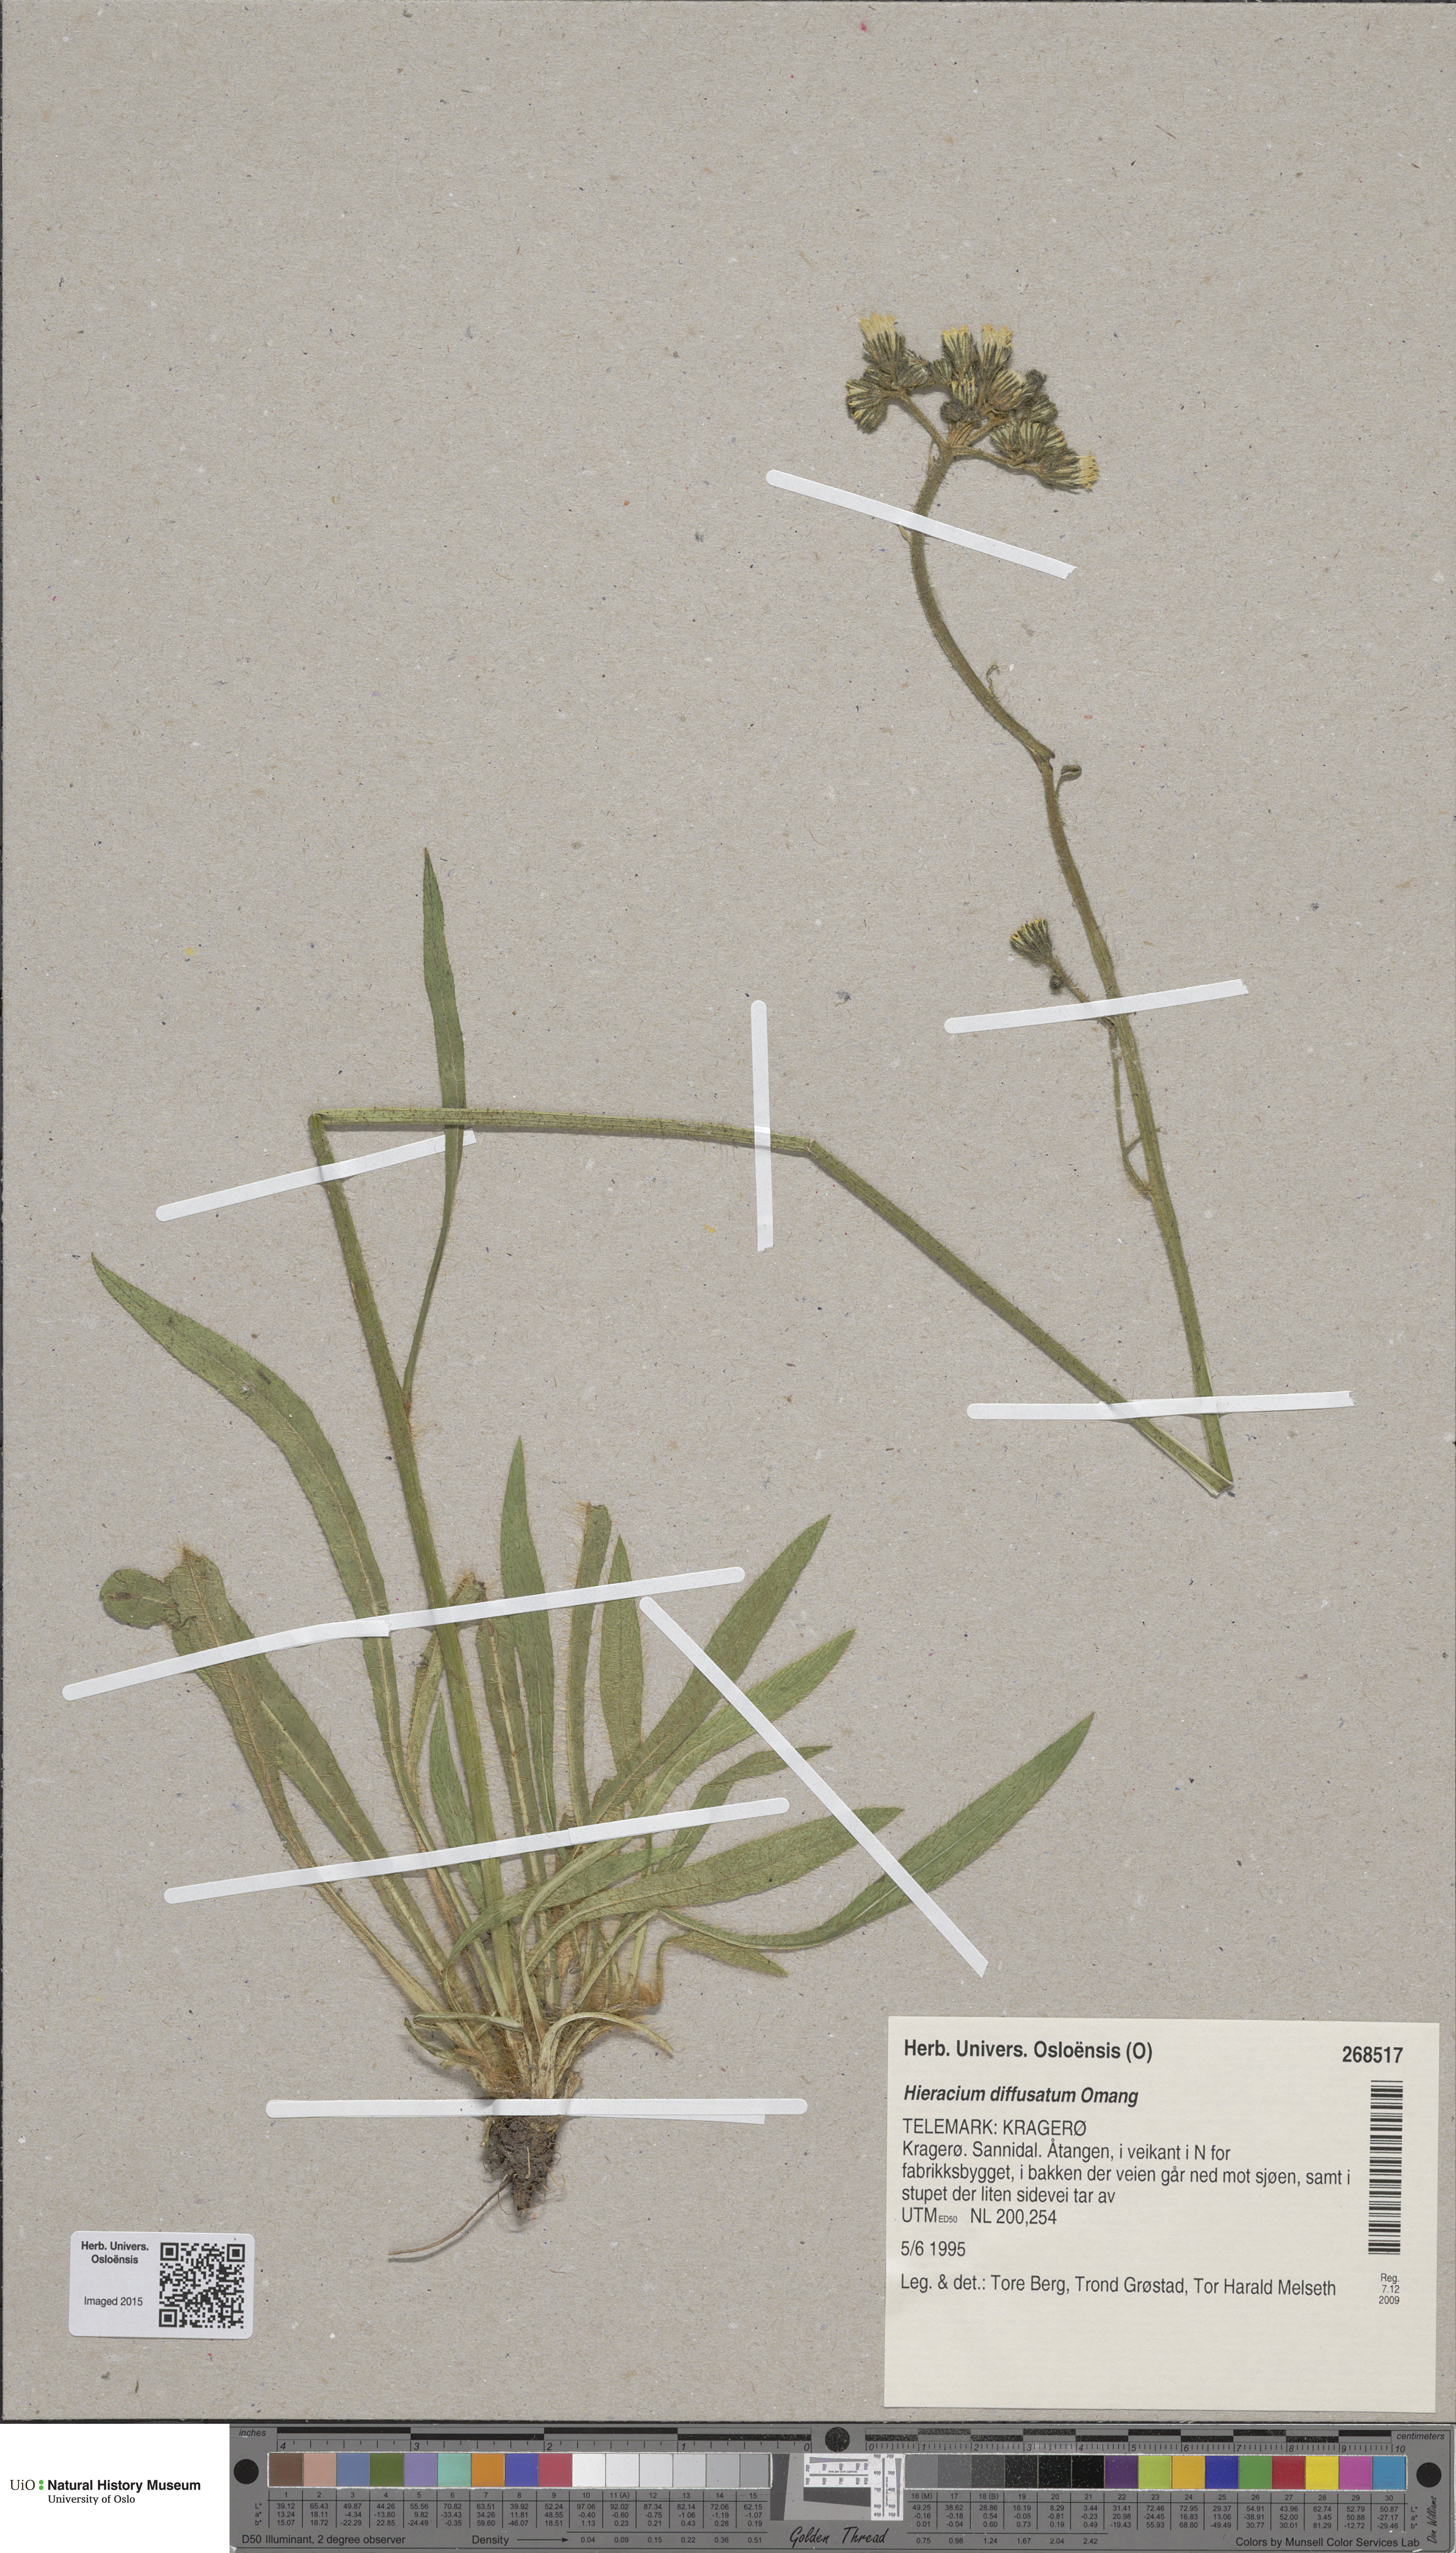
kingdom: Plantae
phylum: Tracheophyta
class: Magnoliopsida
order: Asterales
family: Asteraceae
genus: Pilosella
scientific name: Pilosella dubia
